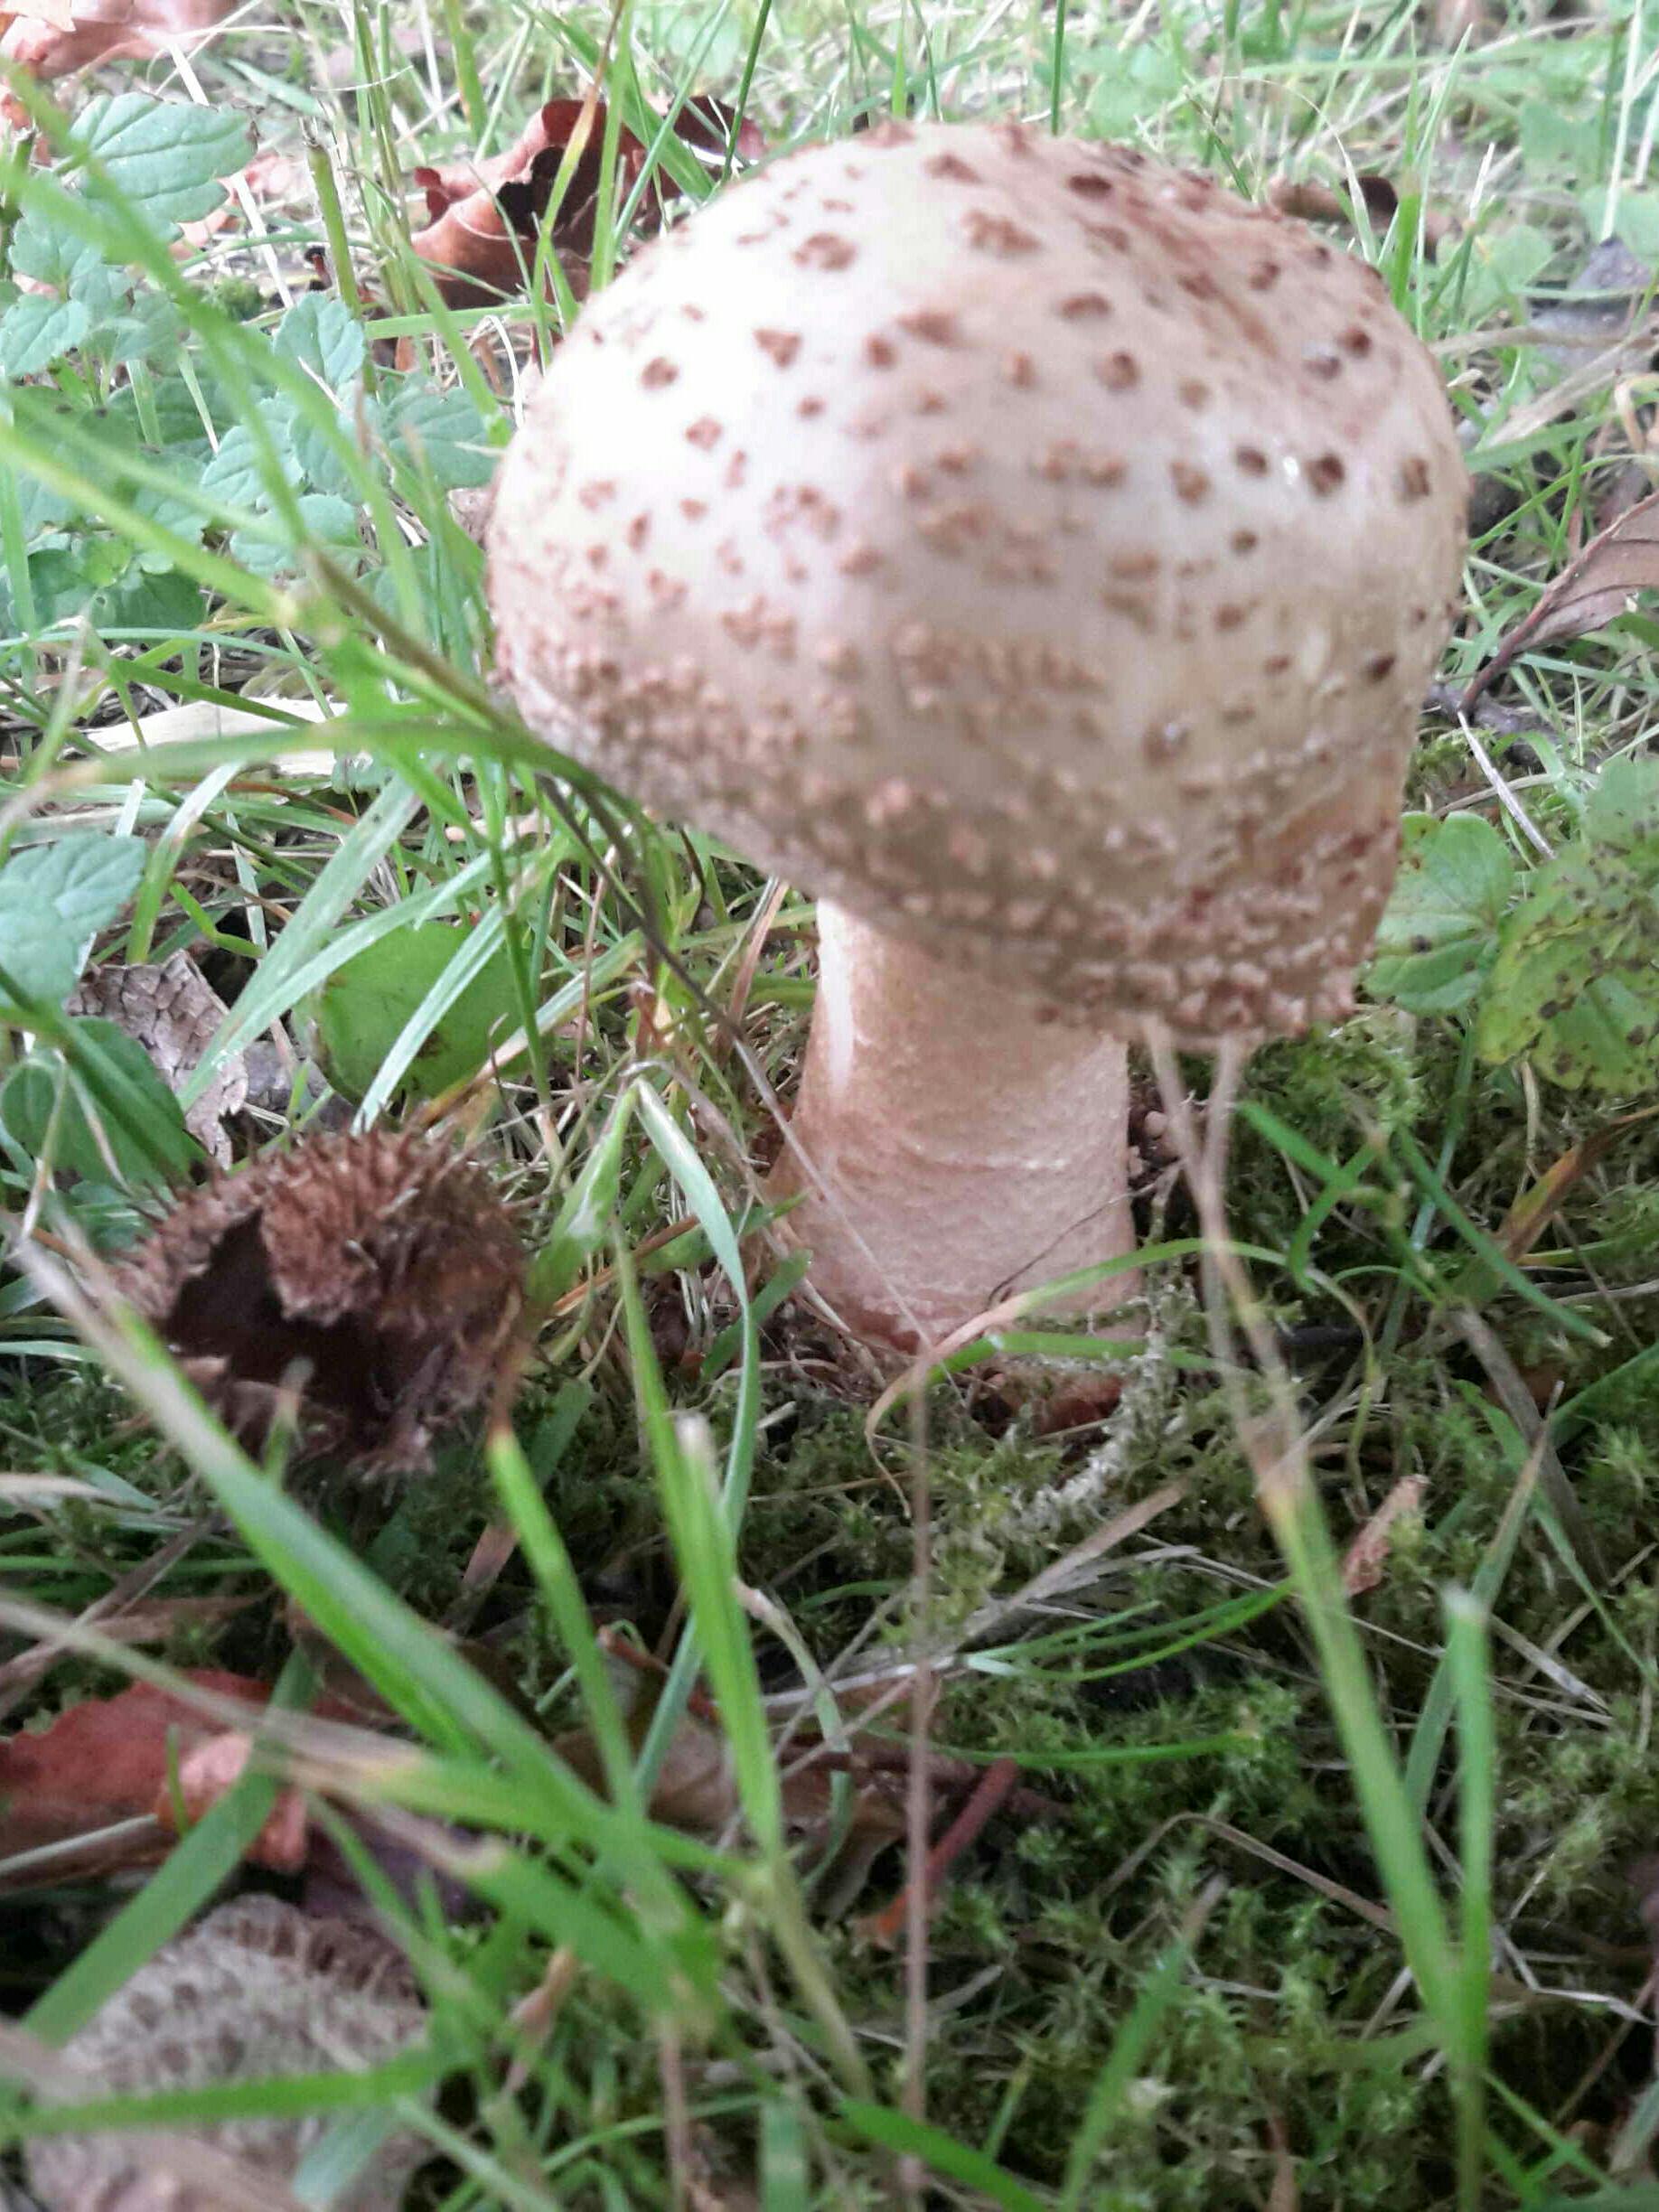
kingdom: Fungi
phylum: Basidiomycota
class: Agaricomycetes
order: Agaricales
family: Amanitaceae
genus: Amanita
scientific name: Amanita rubescens
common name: rødmende fluesvamp
